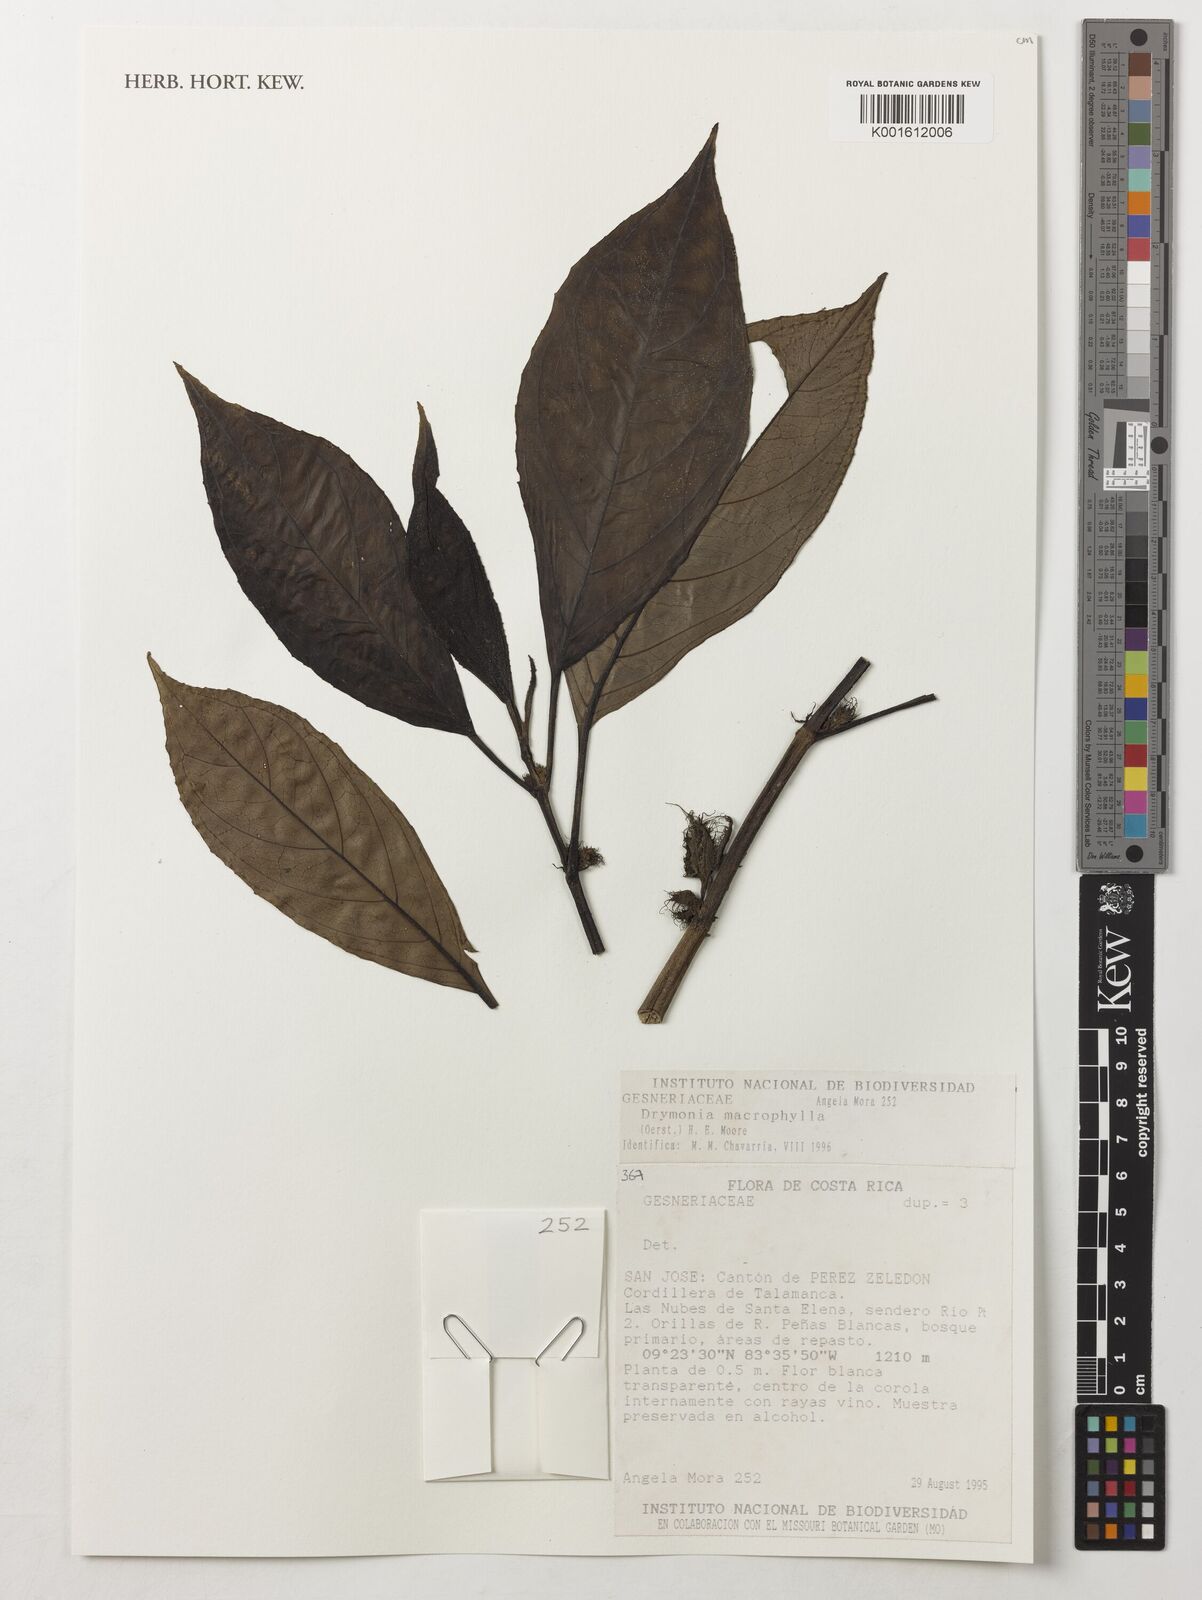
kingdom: Plantae
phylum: Tracheophyta
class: Magnoliopsida
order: Lamiales
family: Gesneriaceae
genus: Drymonia
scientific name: Drymonia macrophylla
